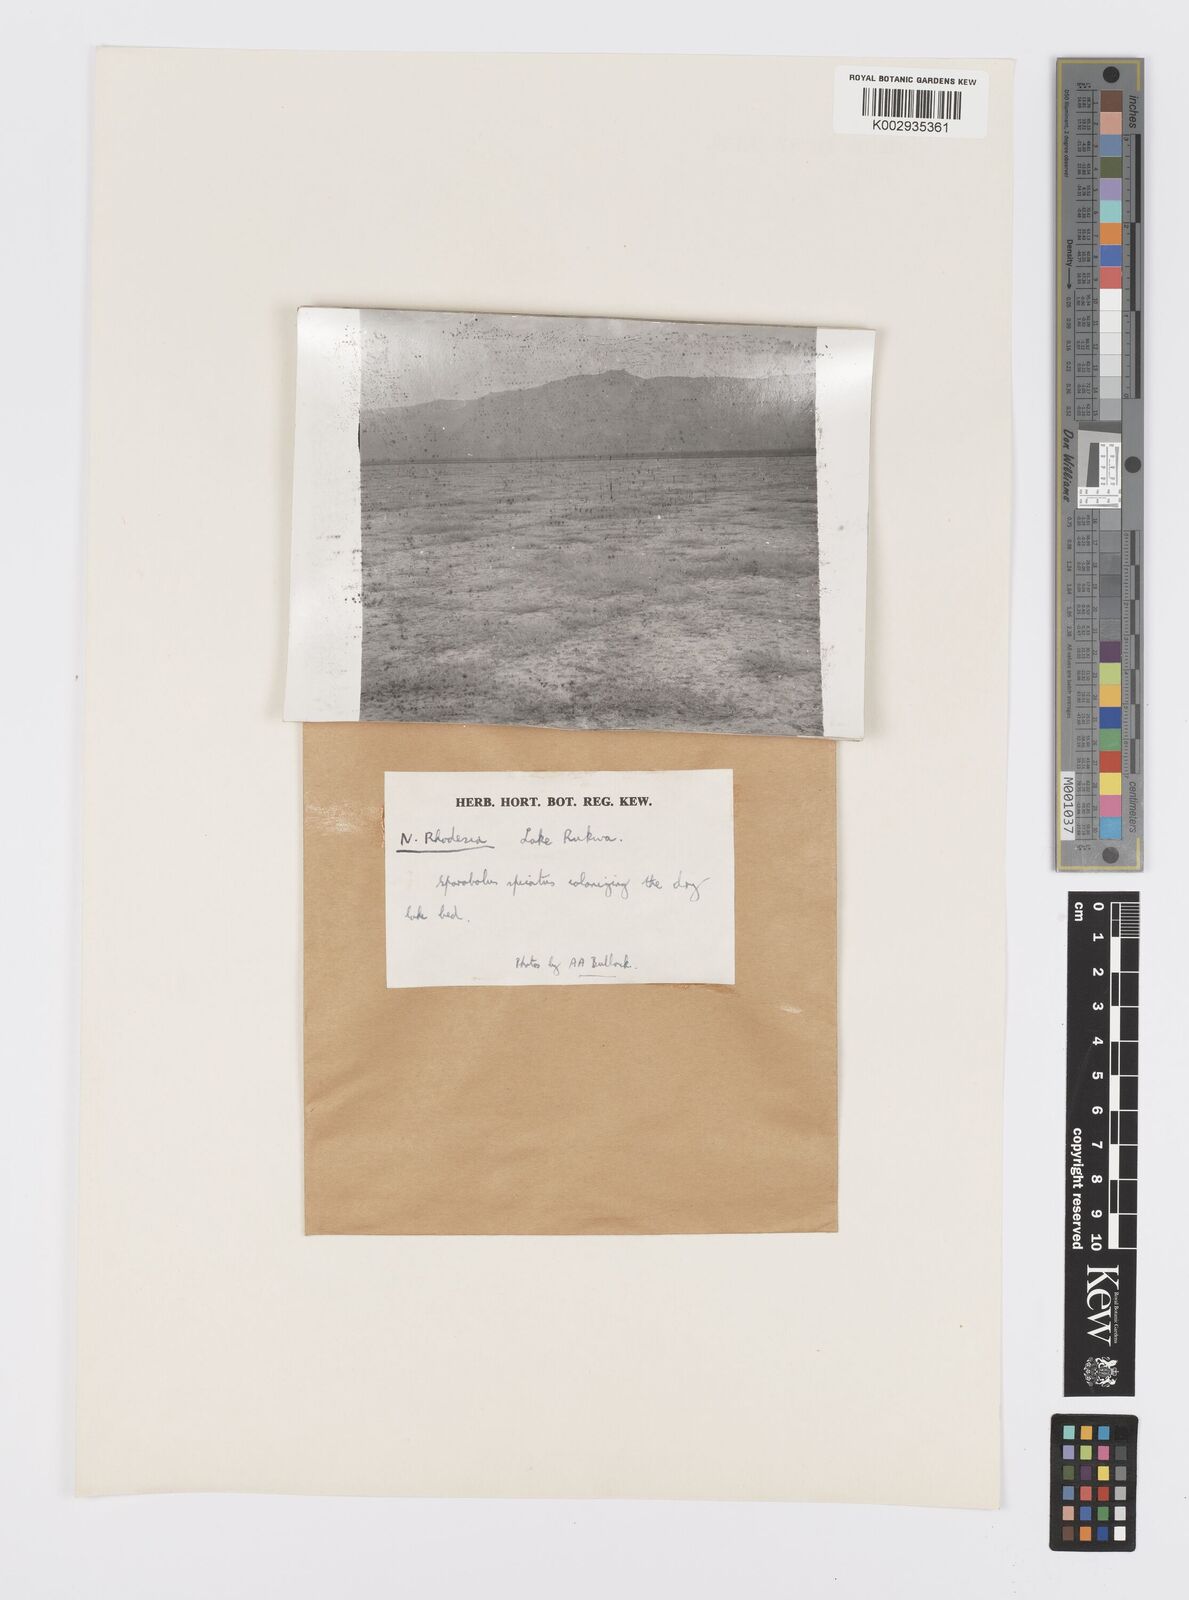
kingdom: Plantae
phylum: Tracheophyta
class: Liliopsida
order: Poales
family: Poaceae
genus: Sporobolus
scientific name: Sporobolus spicatus
